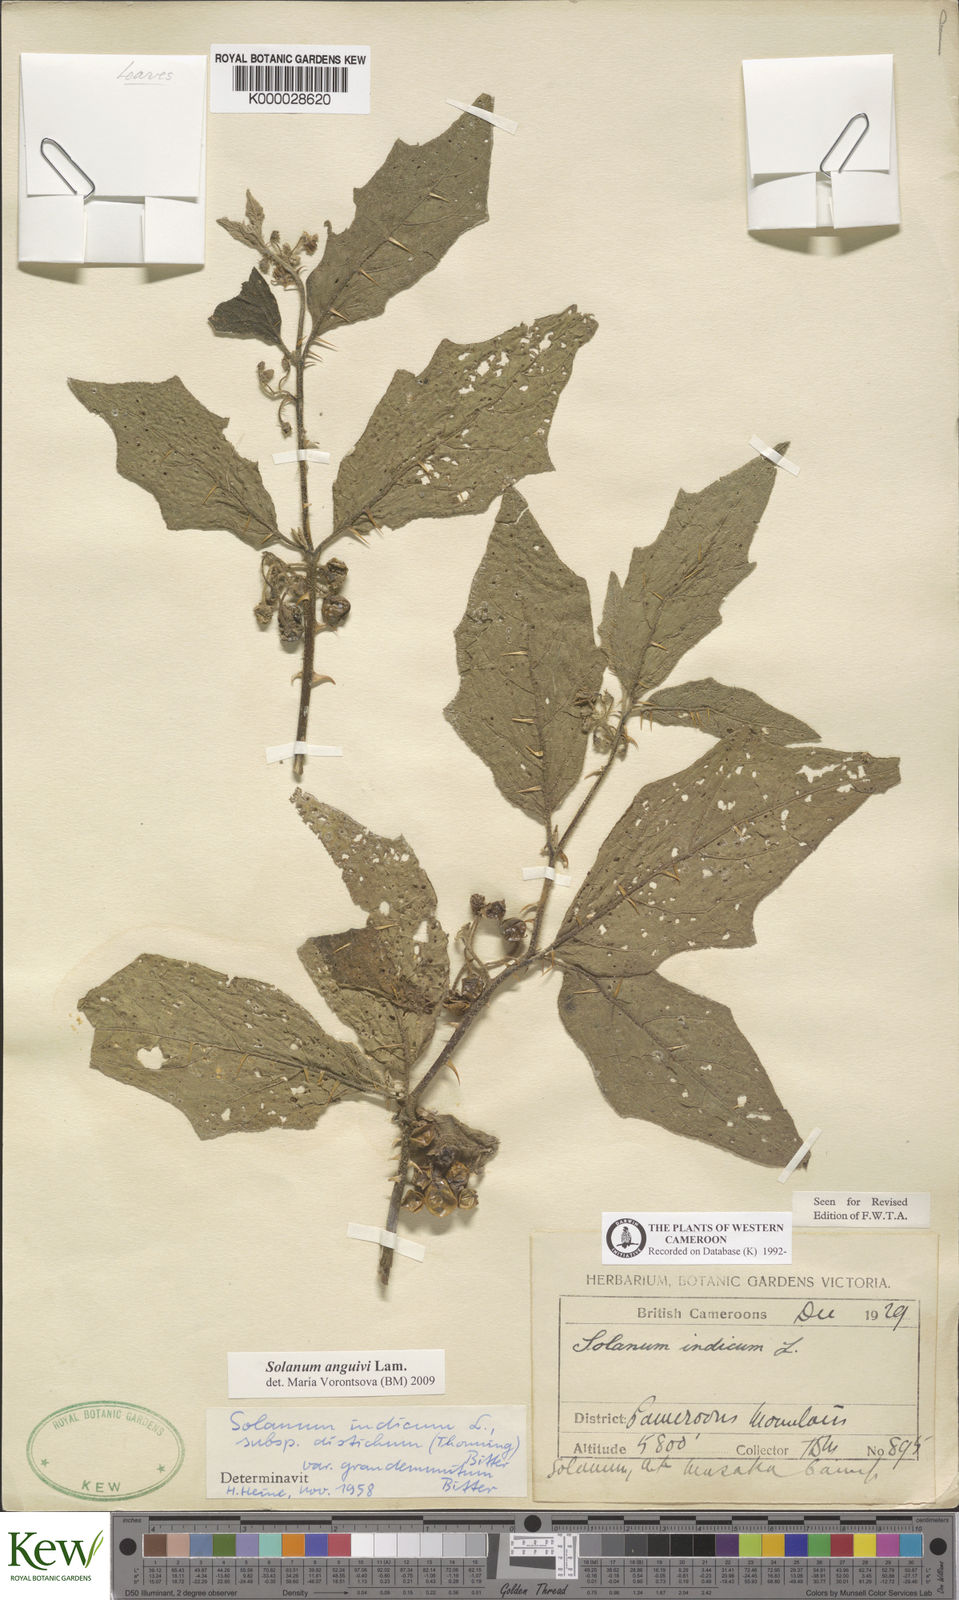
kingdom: Plantae
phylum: Tracheophyta
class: Magnoliopsida
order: Solanales
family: Solanaceae
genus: Solanum
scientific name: Solanum violaceum
